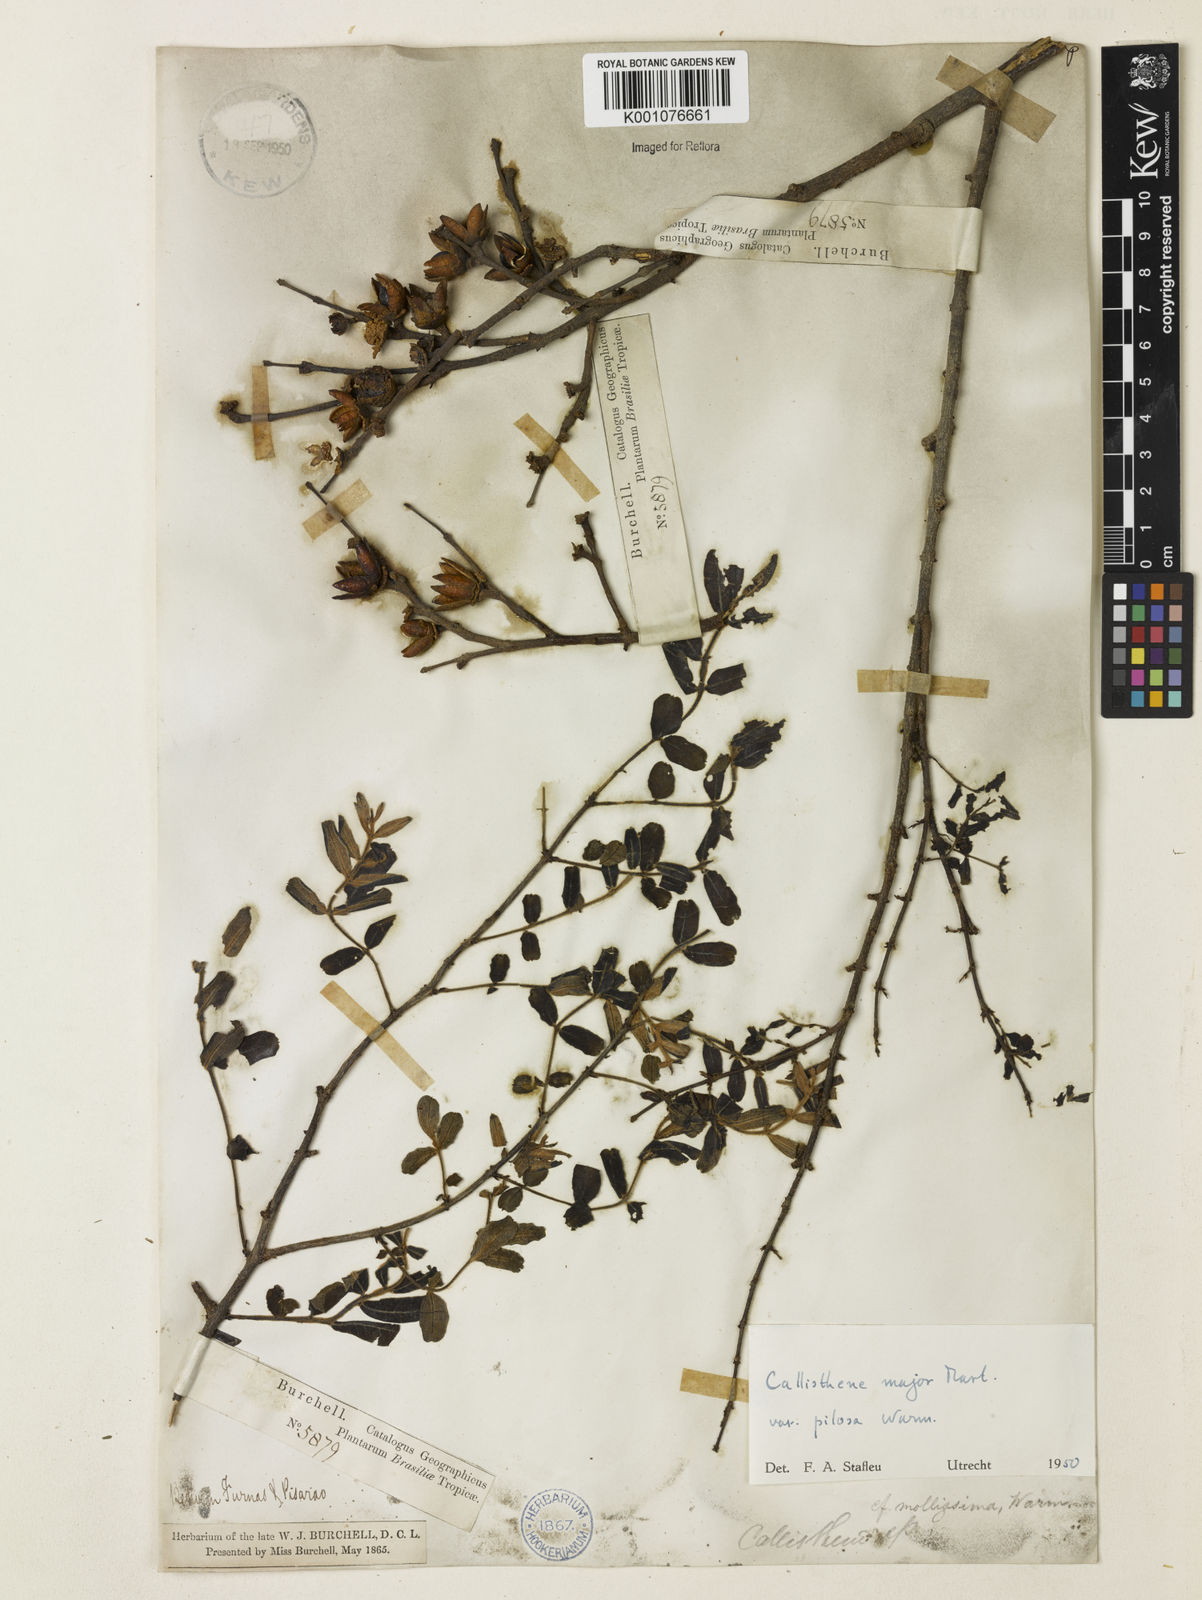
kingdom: Plantae
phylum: Tracheophyta
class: Magnoliopsida
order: Myrtales
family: Vochysiaceae
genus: Callisthene
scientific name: Callisthene major
